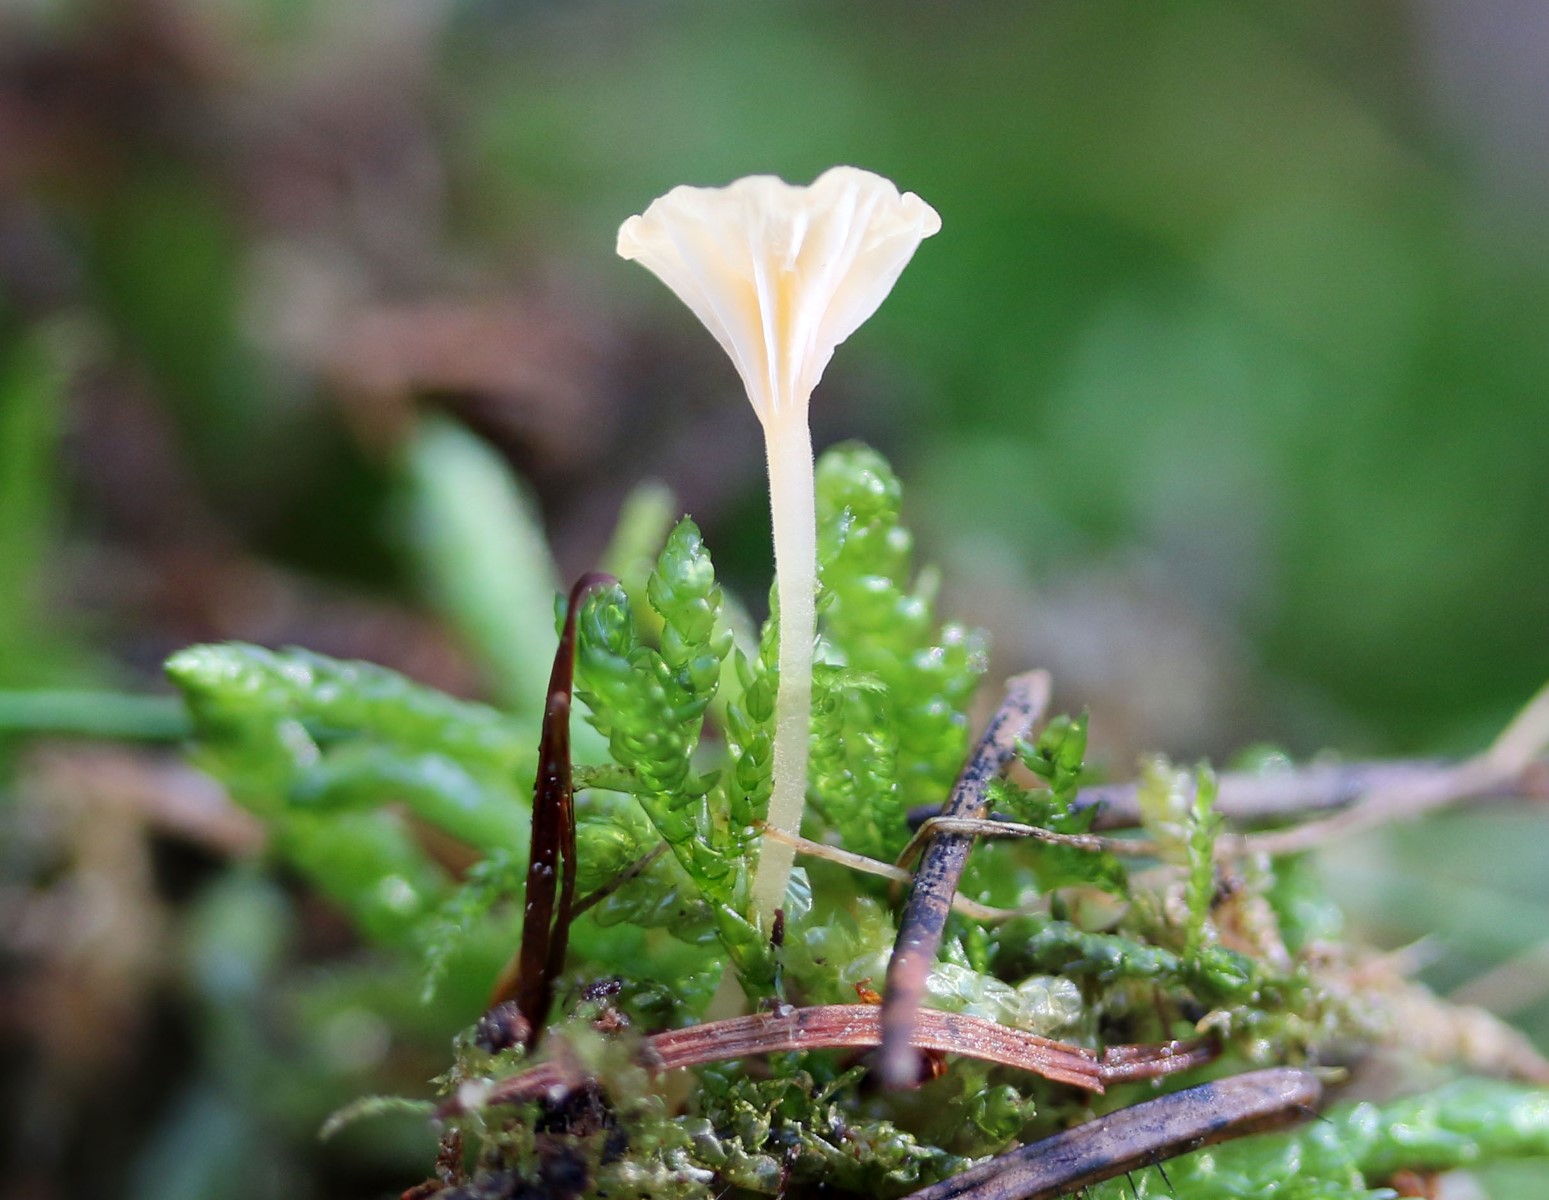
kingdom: Fungi
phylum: Basidiomycota
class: Agaricomycetes
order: Hymenochaetales
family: Rickenellaceae
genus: Rickenella
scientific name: Rickenella fibula
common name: orange mosnavlehat
